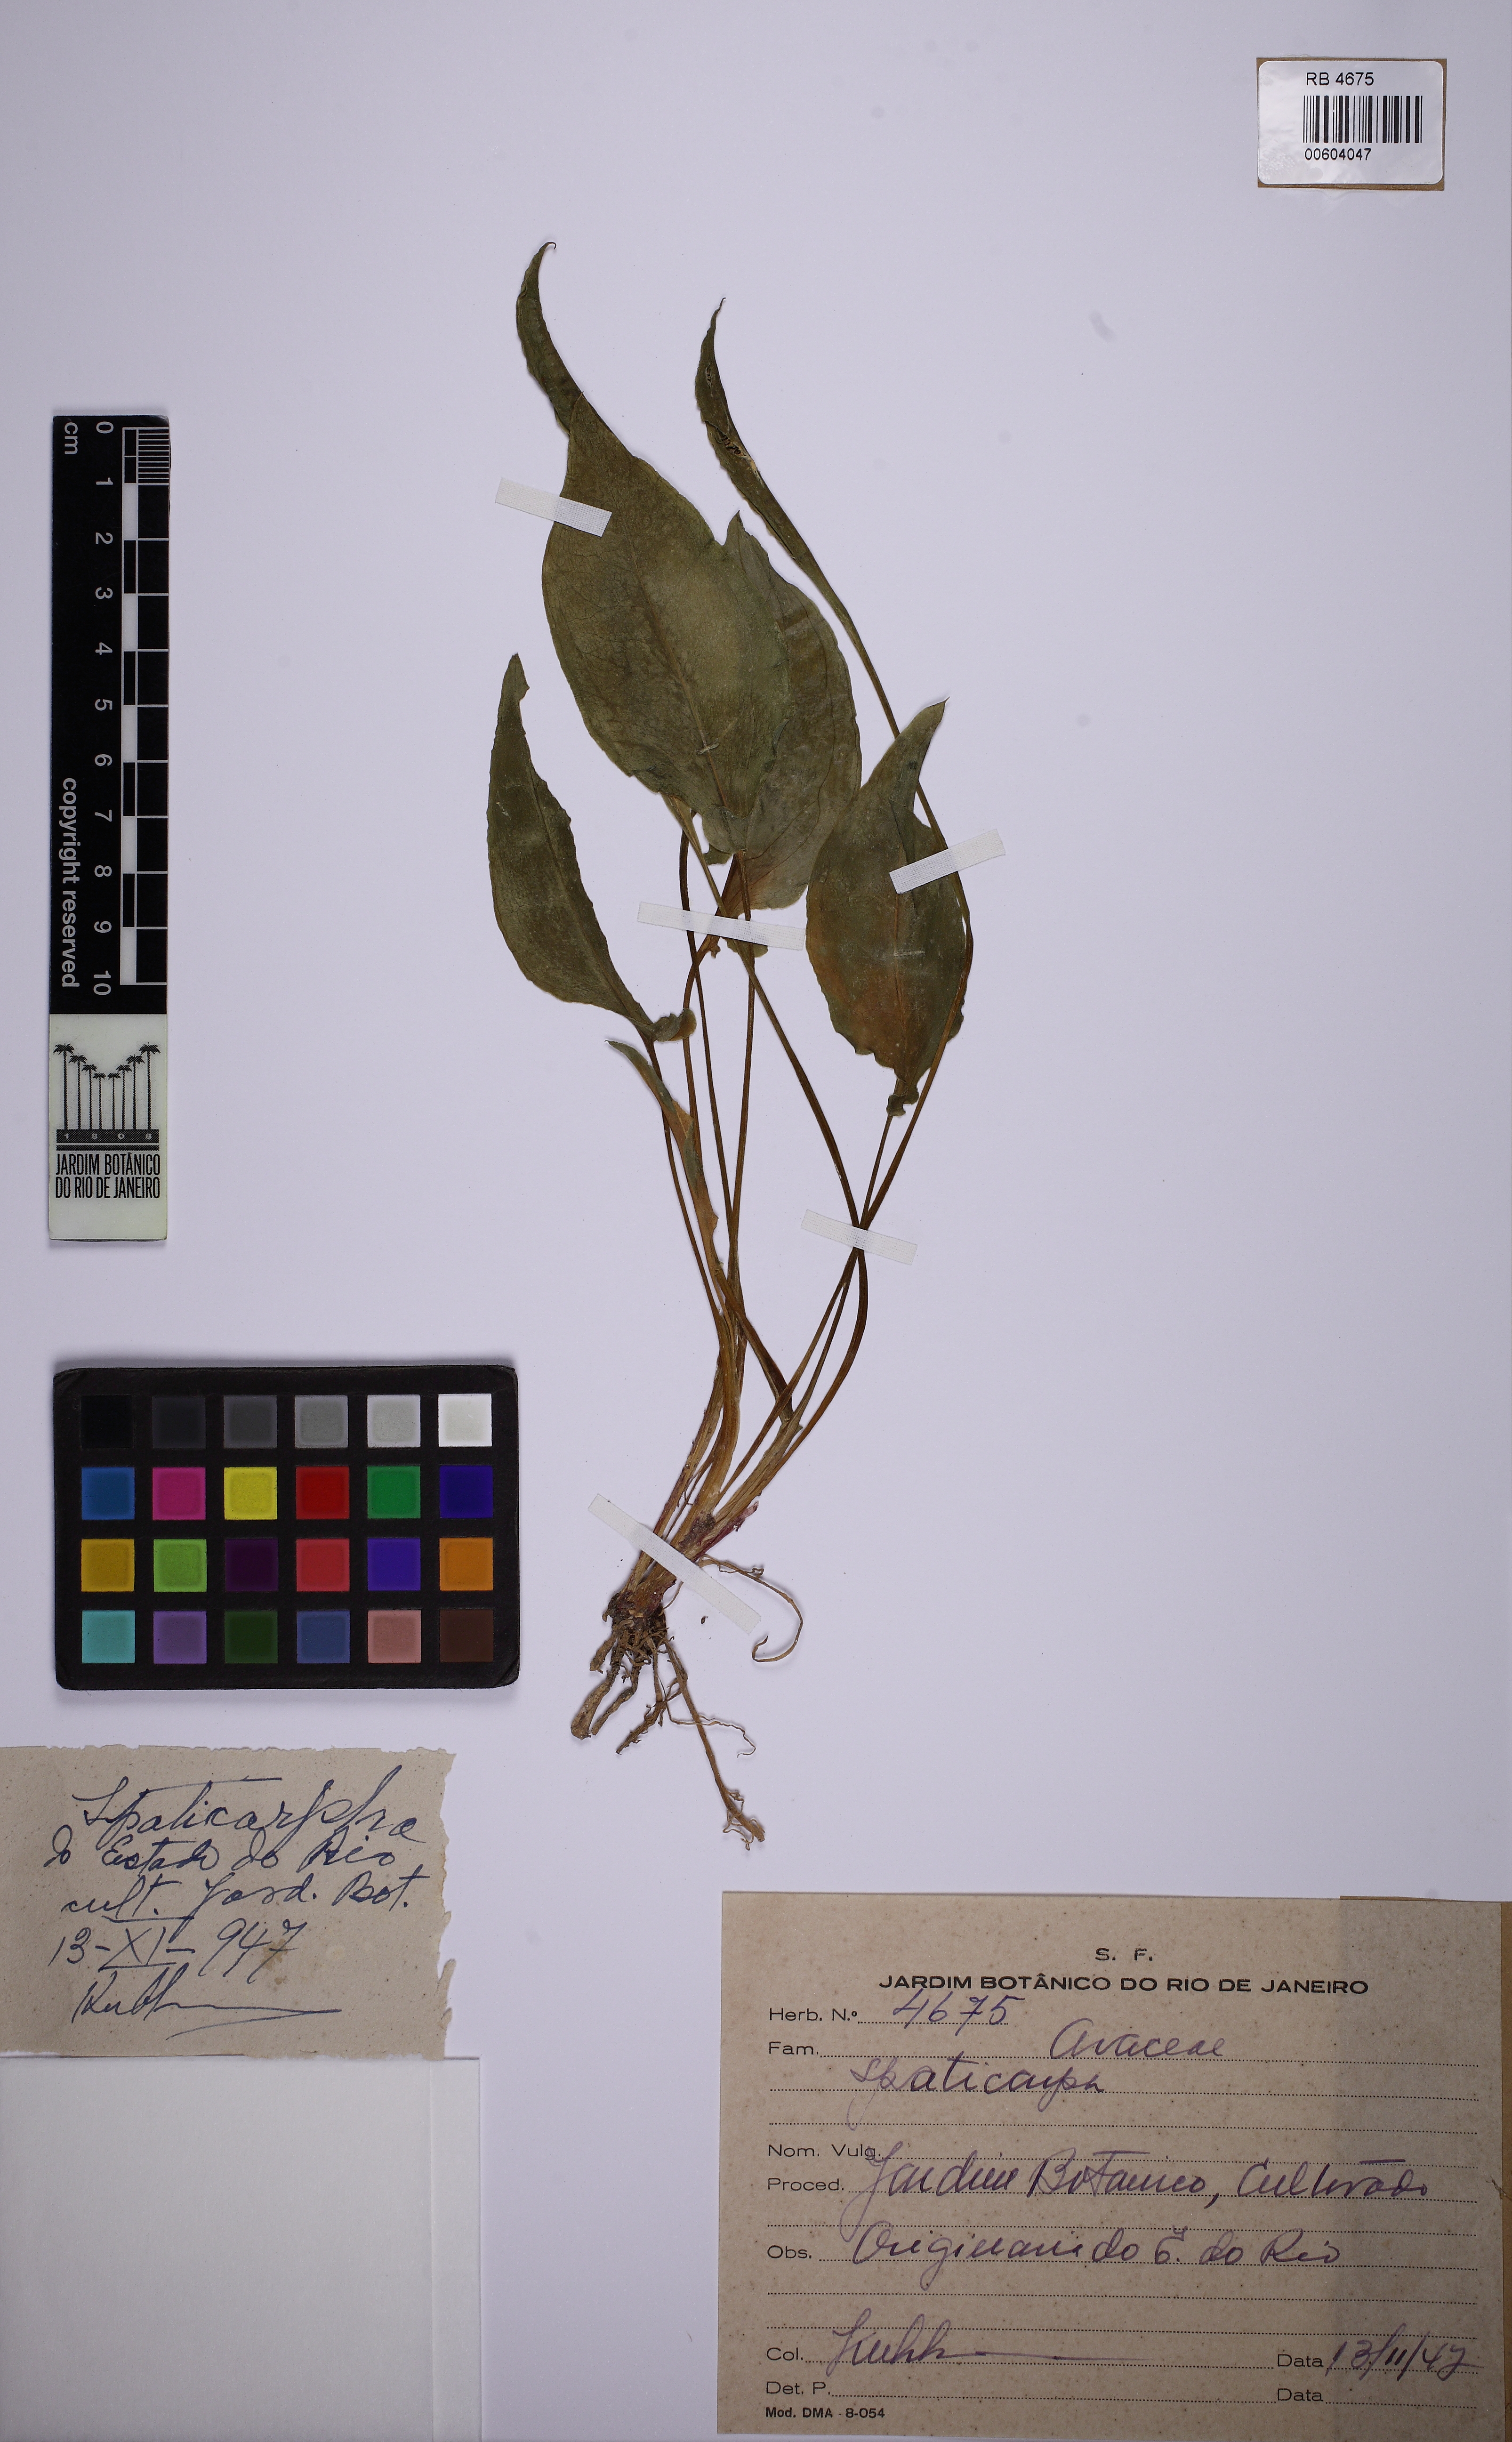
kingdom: Plantae
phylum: Tracheophyta
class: Liliopsida
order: Alismatales
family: Araceae
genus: Spathicarpa
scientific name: Spathicarpa
